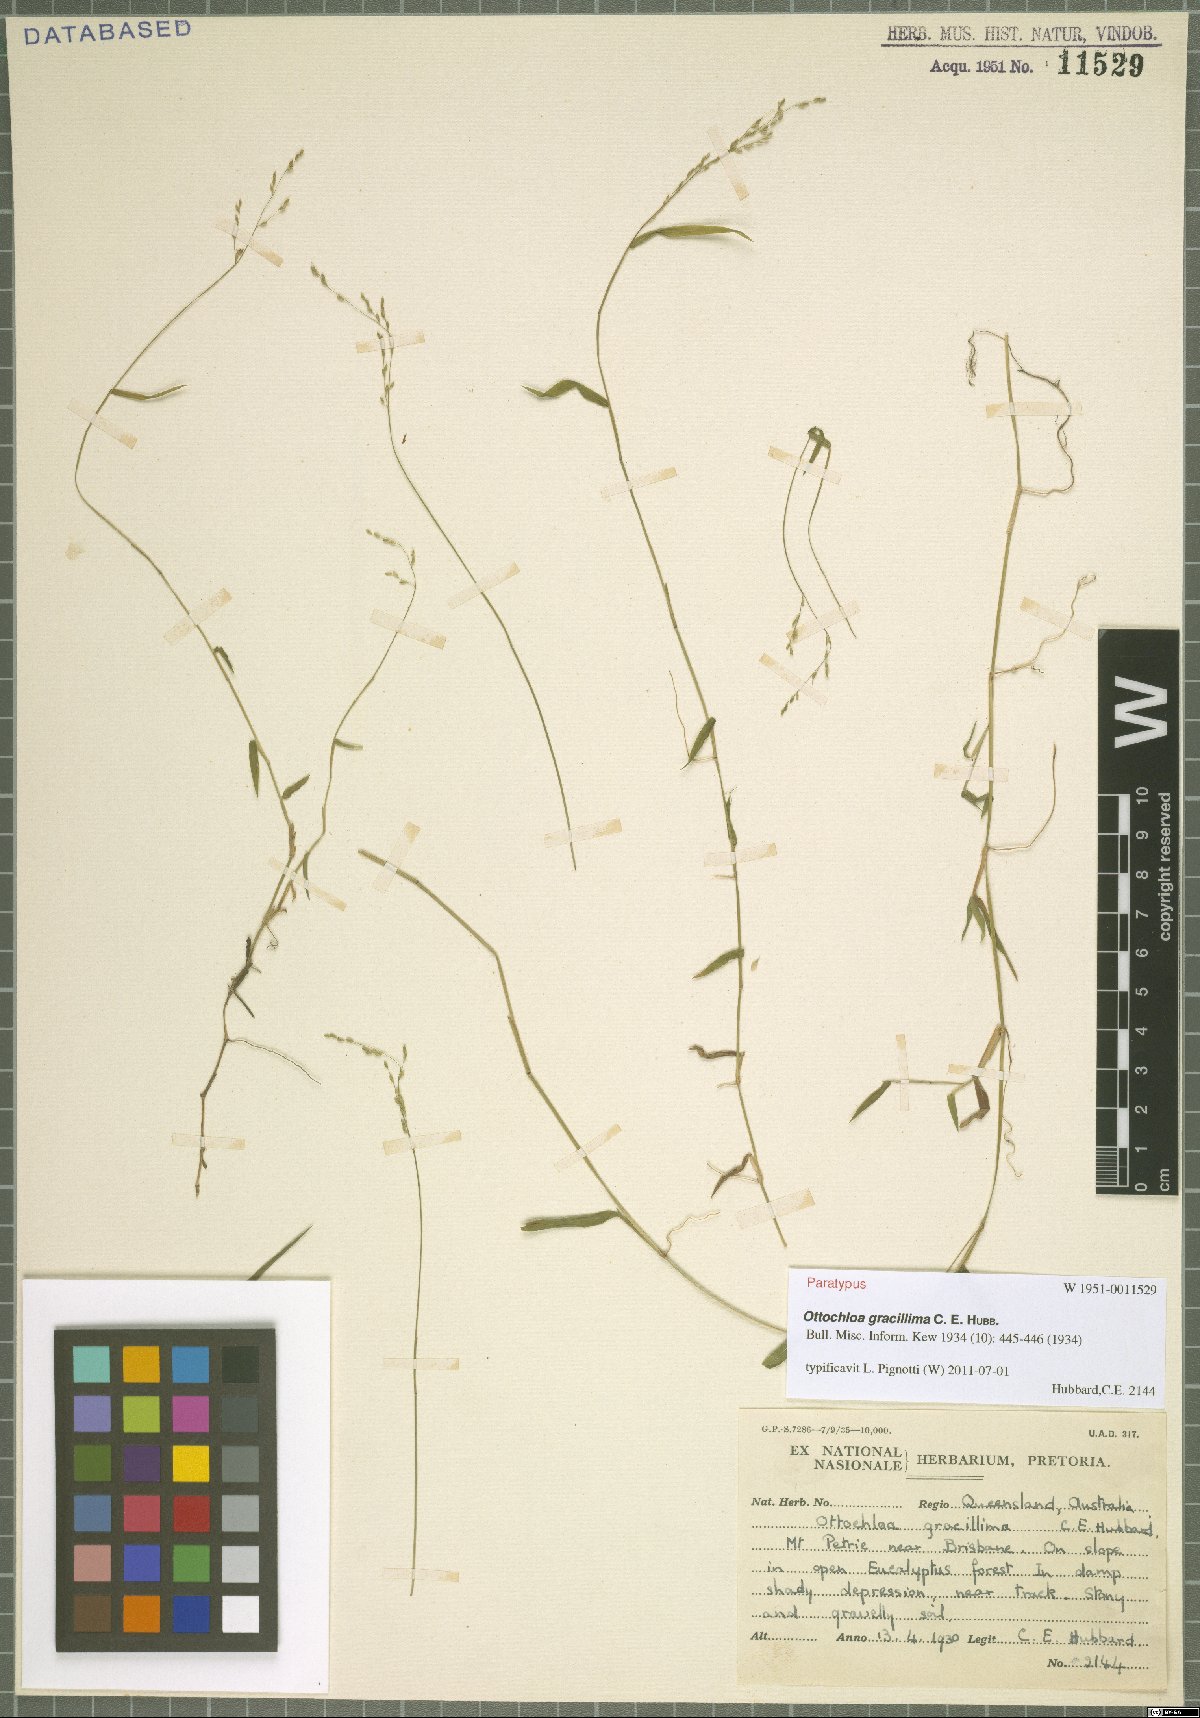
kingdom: Plantae
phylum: Tracheophyta
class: Liliopsida
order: Poales
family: Poaceae
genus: Ottochloa
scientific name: Ottochloa gracillima
